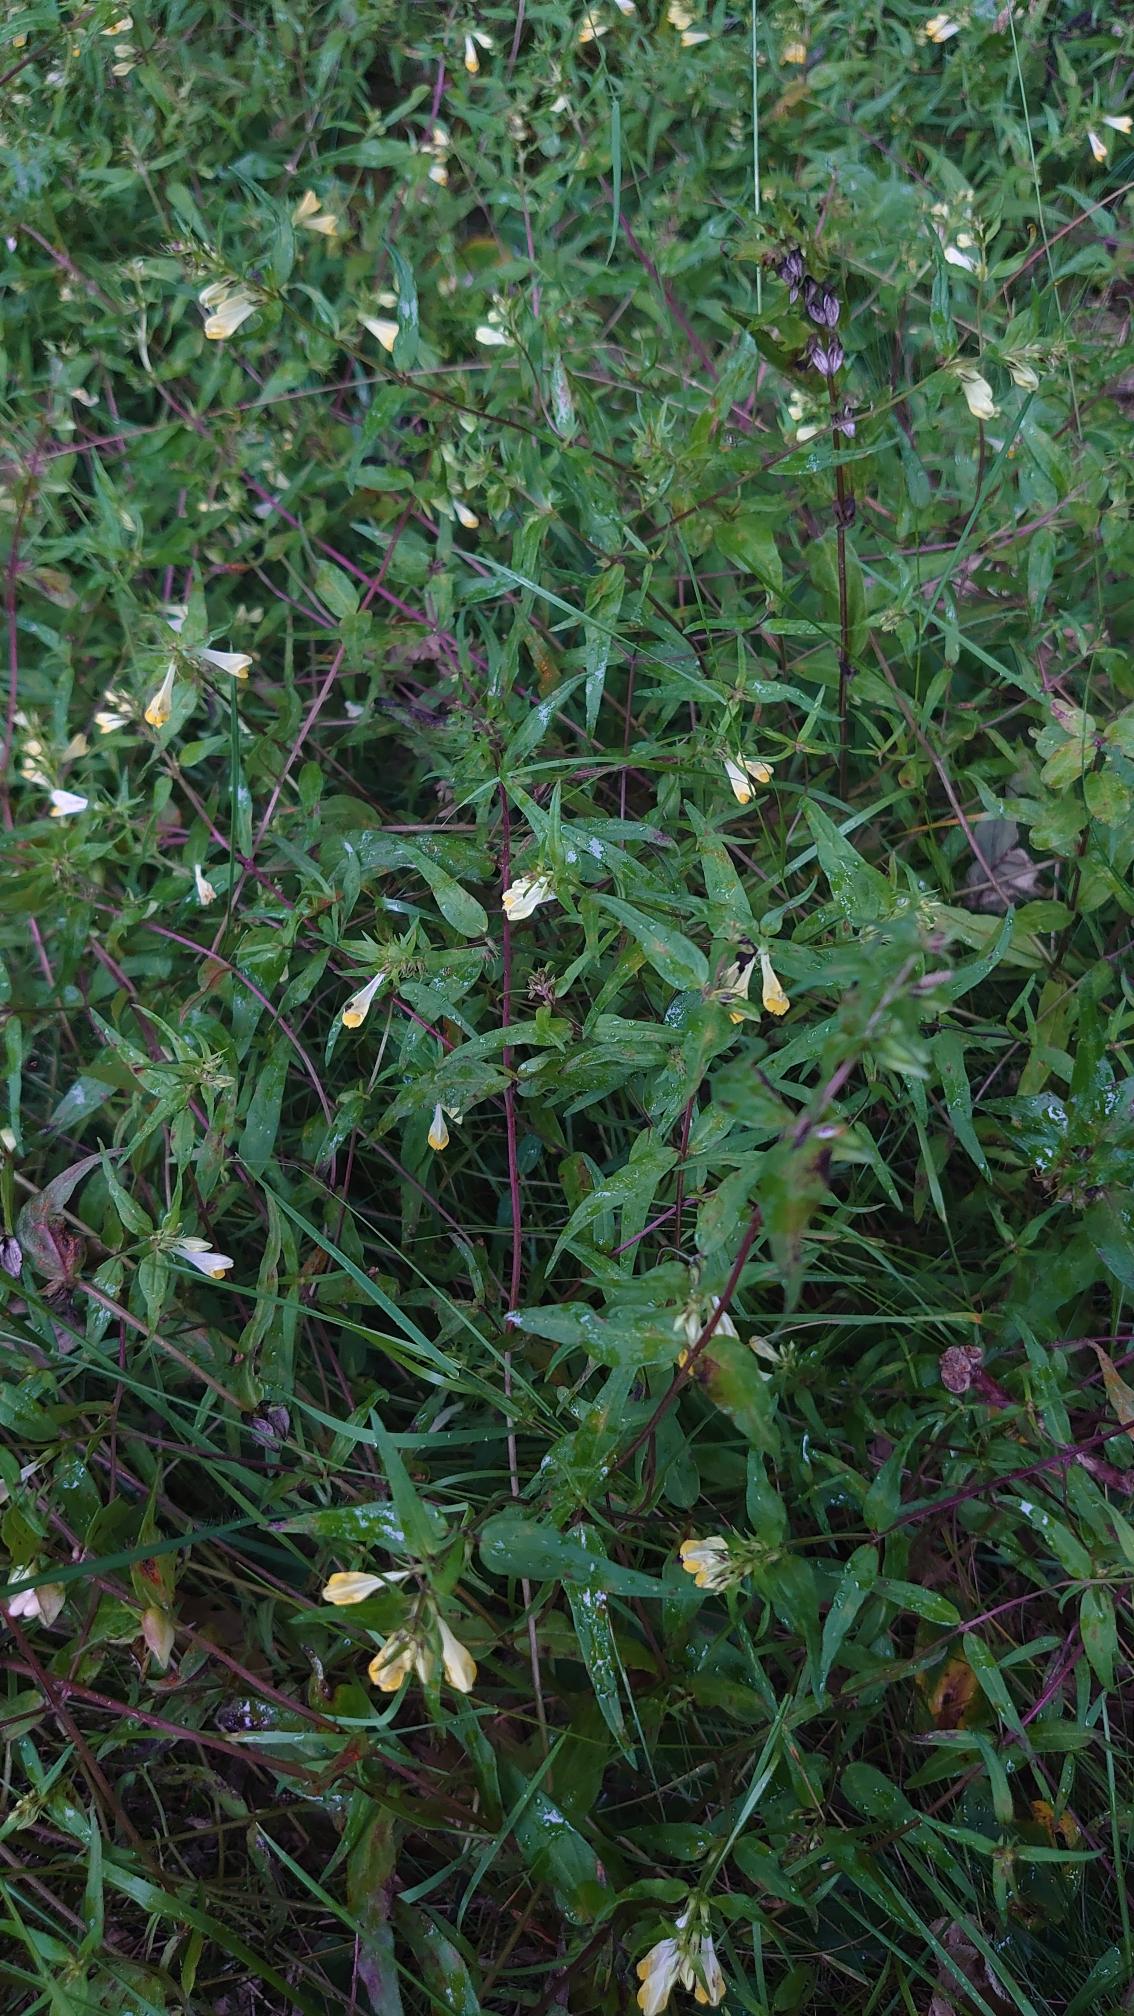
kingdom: Plantae
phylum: Tracheophyta
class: Magnoliopsida
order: Lamiales
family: Orobanchaceae
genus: Melampyrum
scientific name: Melampyrum pratense
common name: Almindelig kohvede
